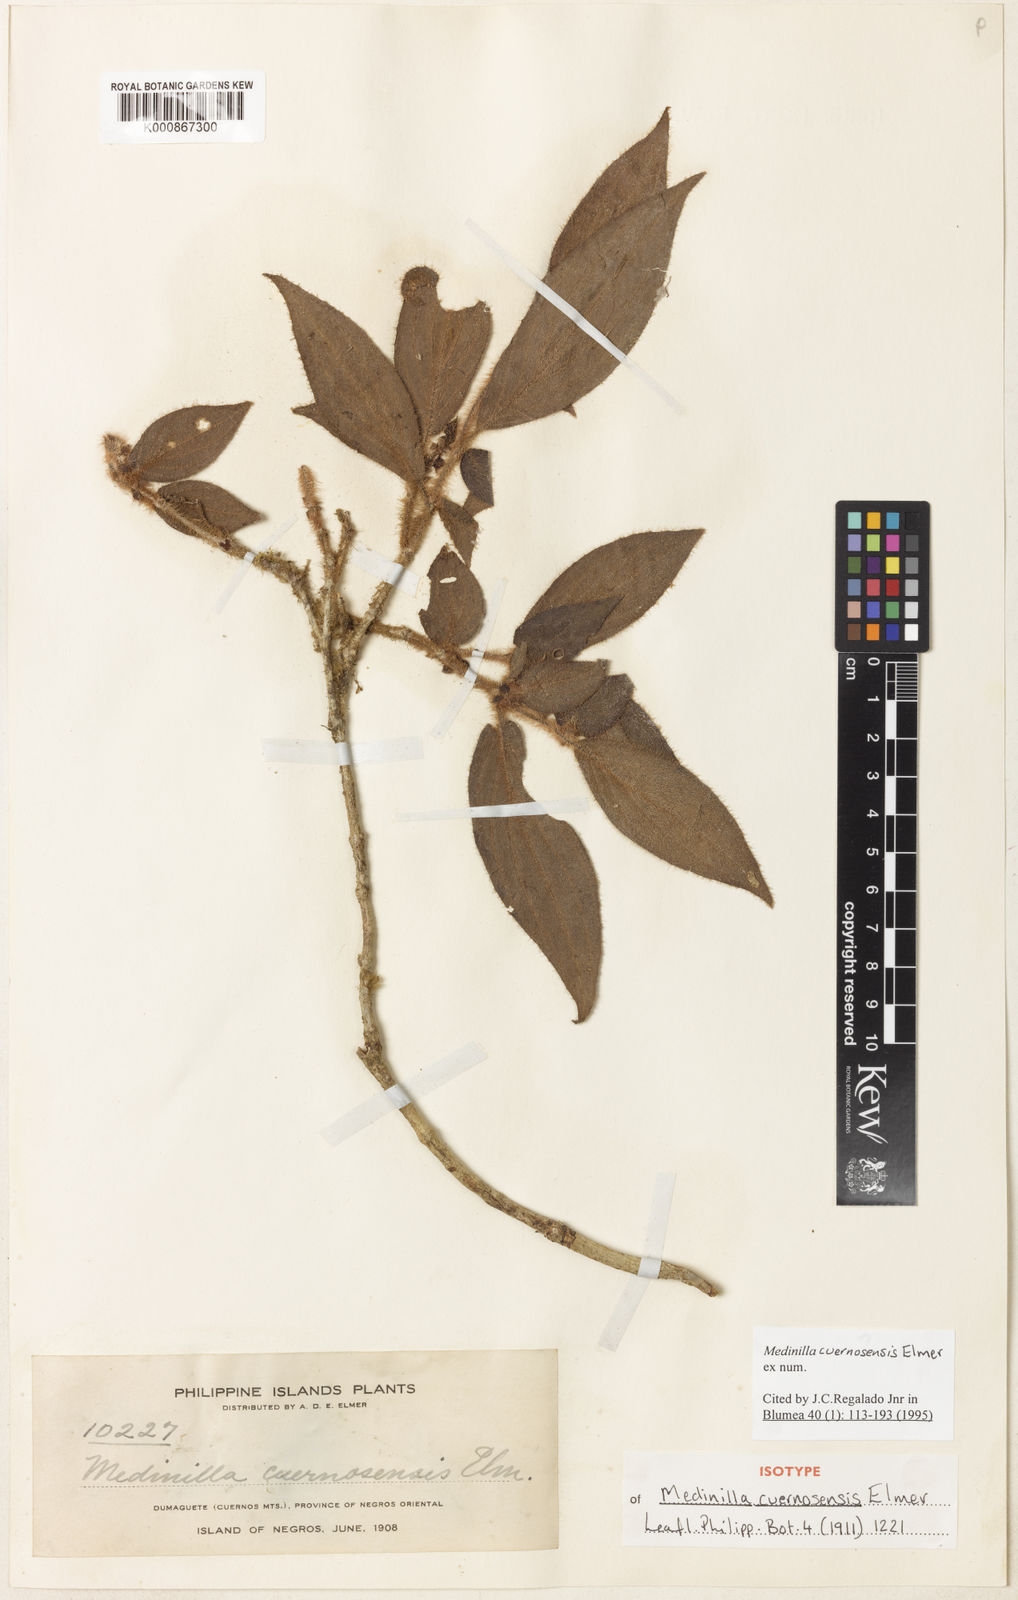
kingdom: Plantae
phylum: Tracheophyta
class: Magnoliopsida
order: Myrtales
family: Melastomataceae
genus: Medinilla
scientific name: Medinilla cuernosensis
